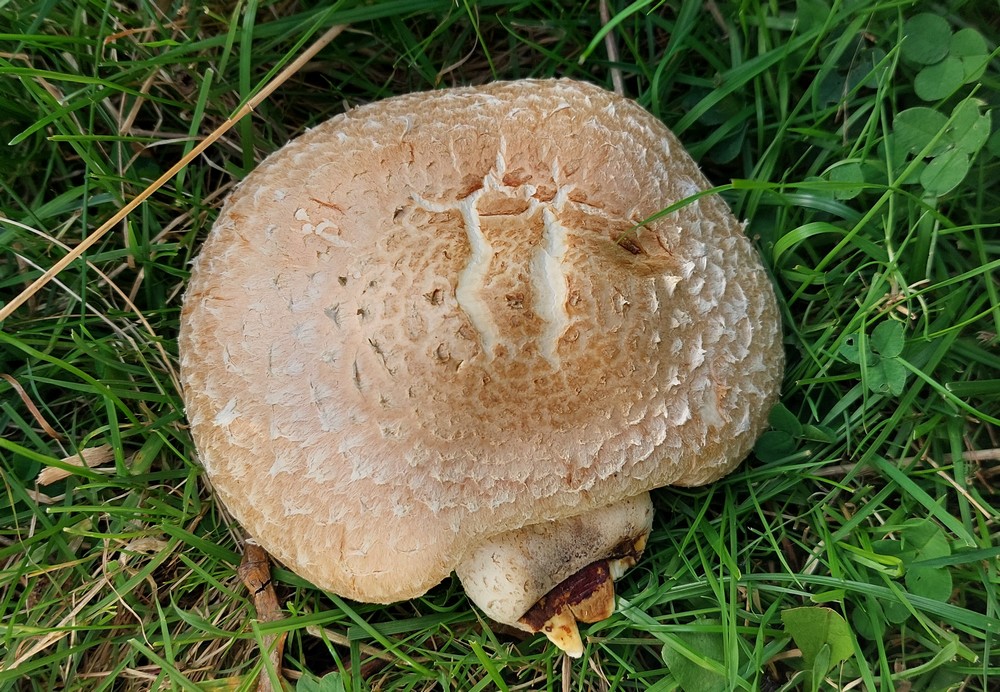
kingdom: Fungi
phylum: Basidiomycota
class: Agaricomycetes
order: Agaricales
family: Strophariaceae
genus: Pholiota
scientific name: Pholiota populnea
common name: poppel-kæmpeskælhat
